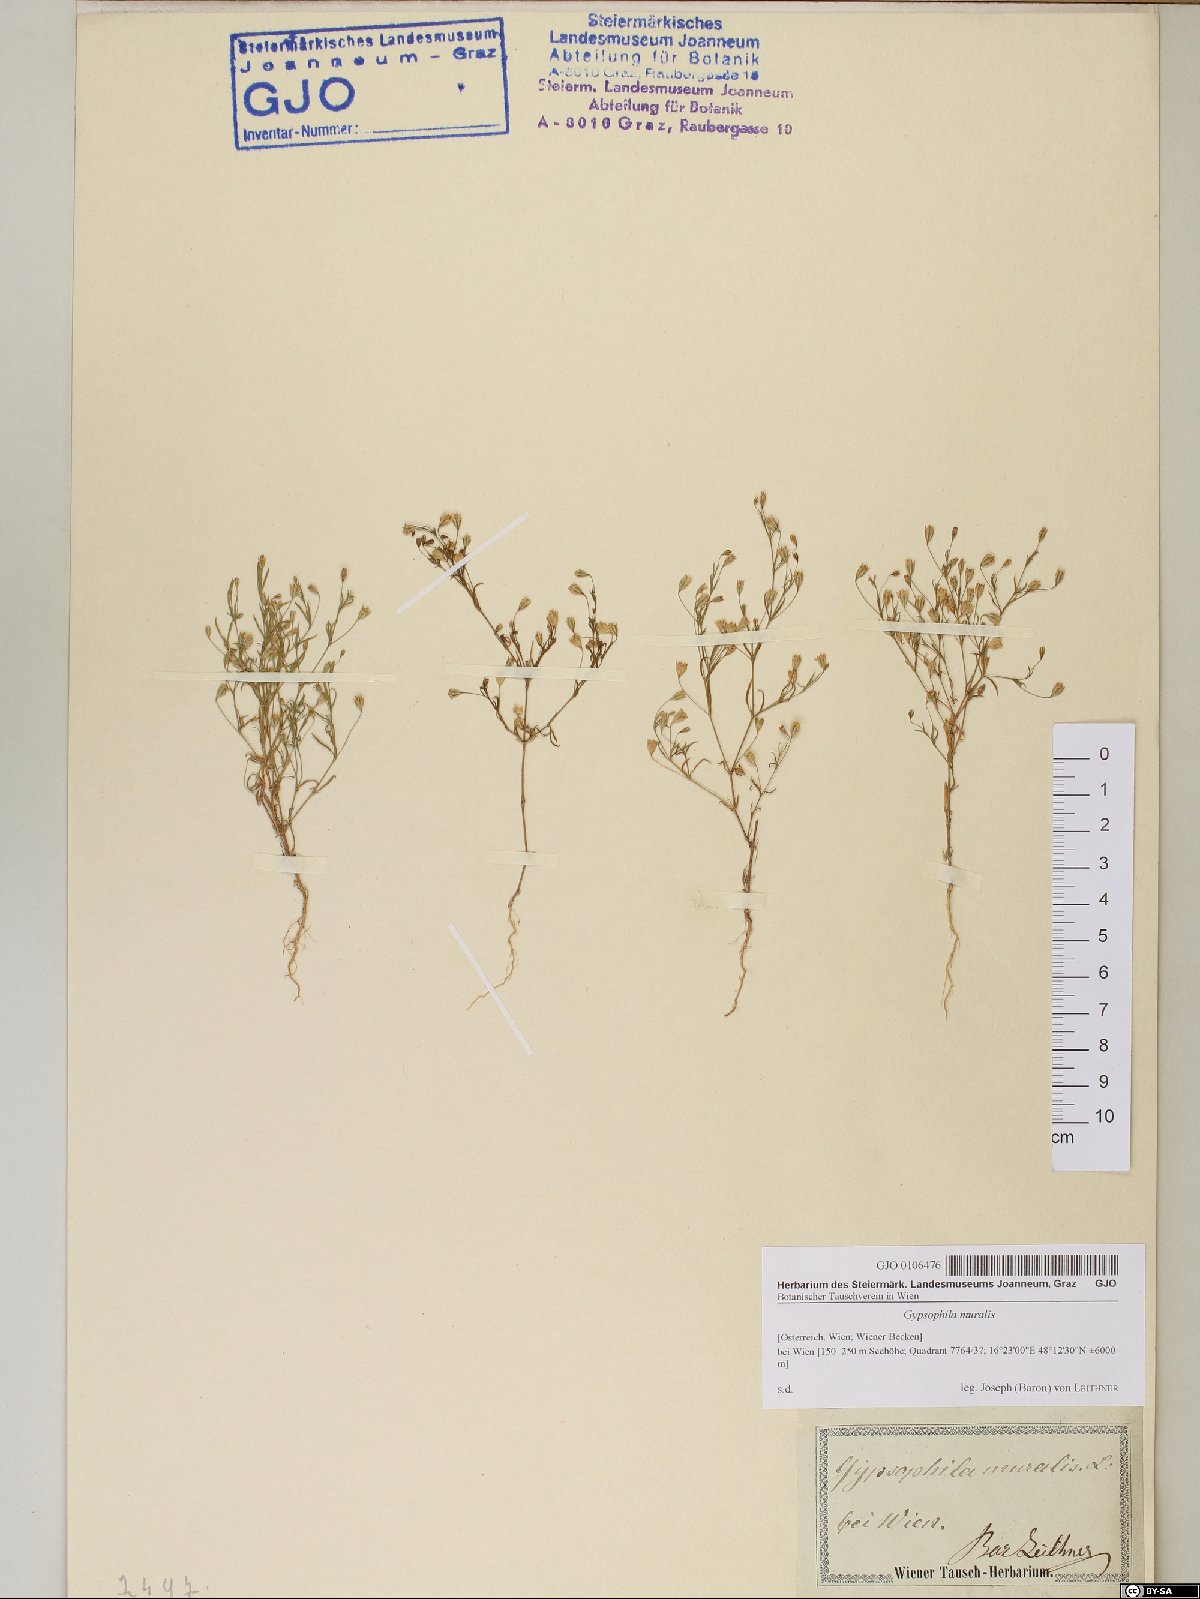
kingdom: Plantae
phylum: Tracheophyta
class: Magnoliopsida
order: Caryophyllales
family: Caryophyllaceae
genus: Psammophiliella
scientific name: Psammophiliella muralis
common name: Cushion baby's-breath
